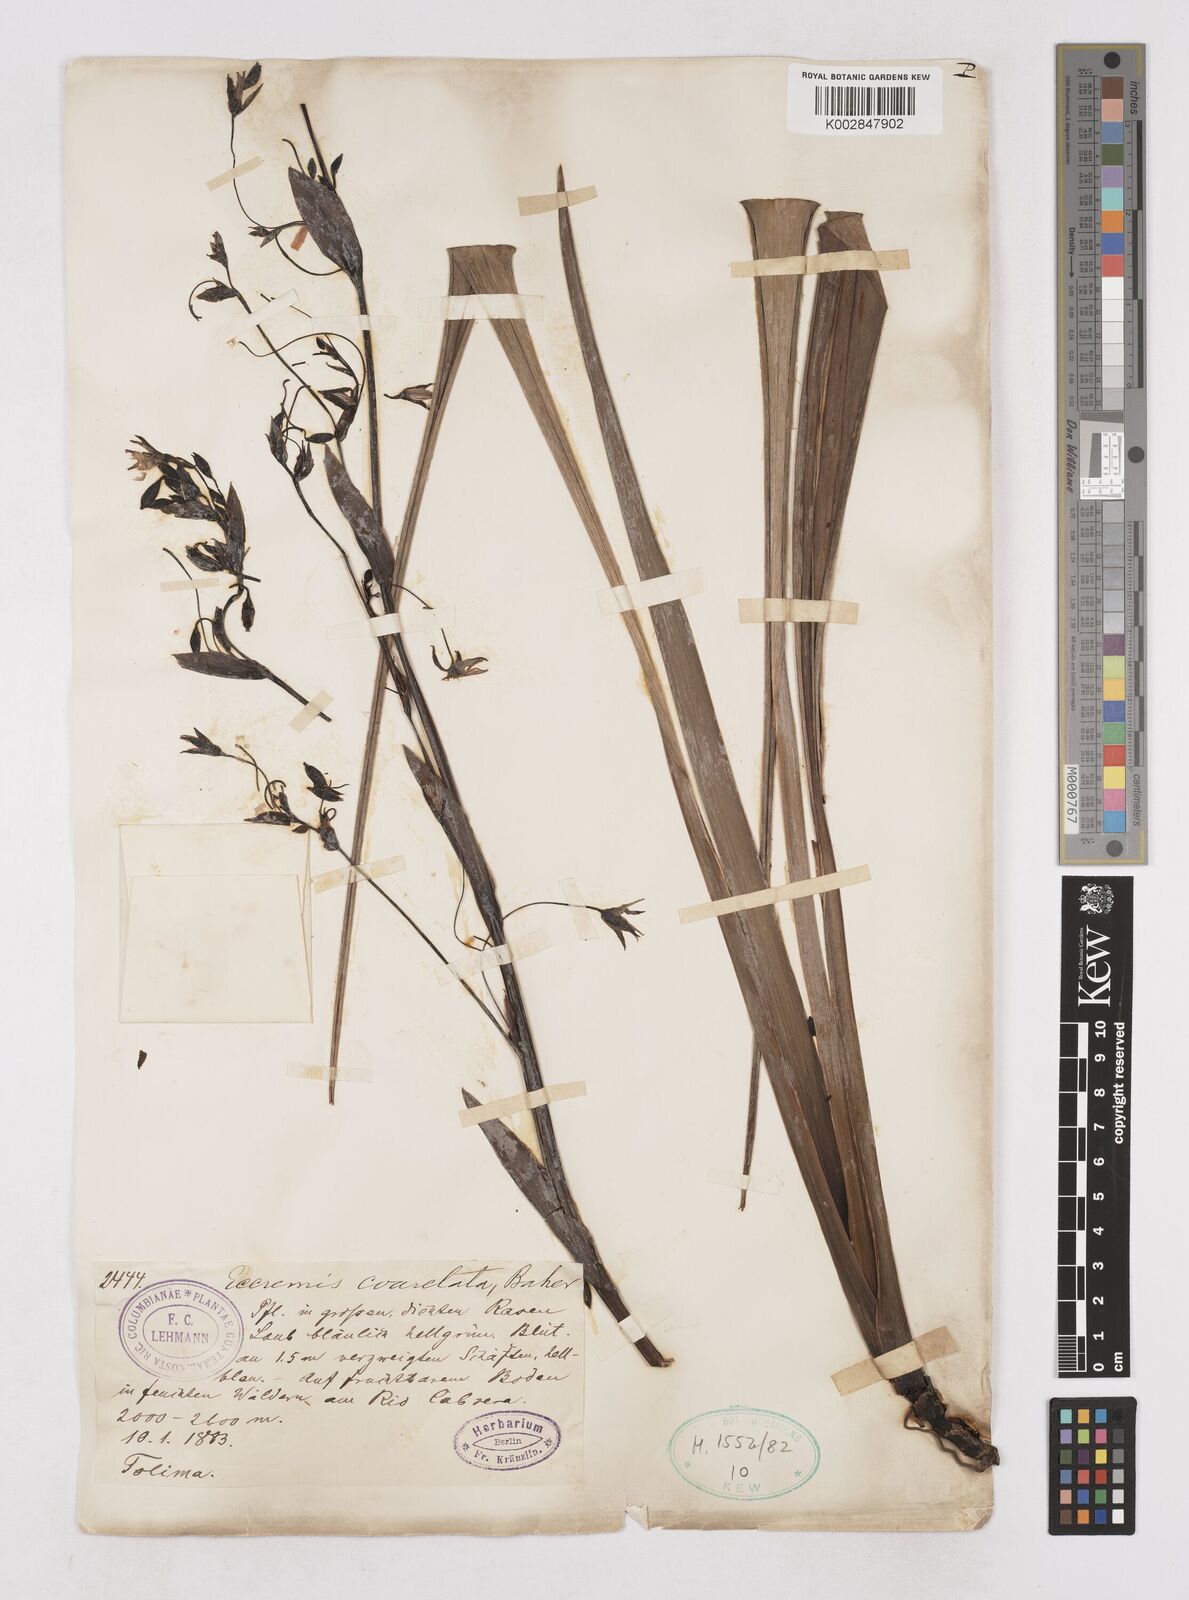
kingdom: Plantae
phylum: Tracheophyta
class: Liliopsida
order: Asparagales
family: Asphodelaceae
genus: Excremis
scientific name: Excremis coarctata
